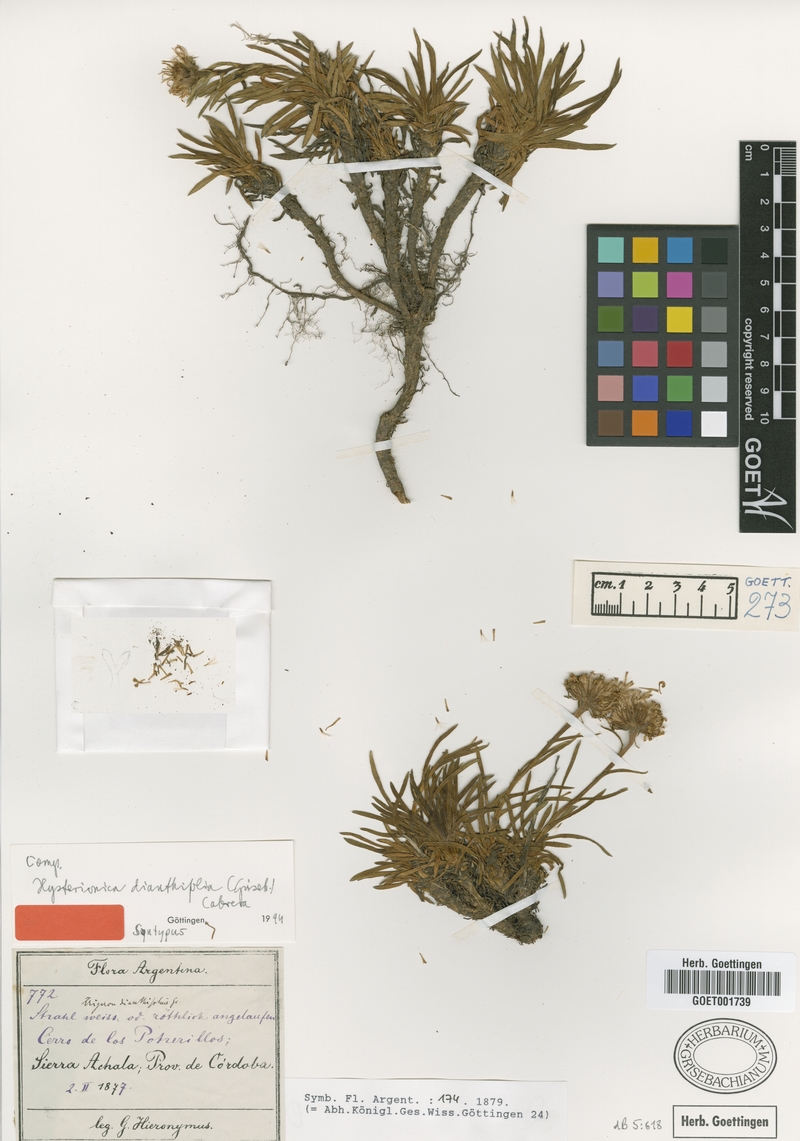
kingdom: Plantae
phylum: Tracheophyta
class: Magnoliopsida
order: Asterales
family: Asteraceae
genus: Neja
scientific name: Neja dianthifolia
